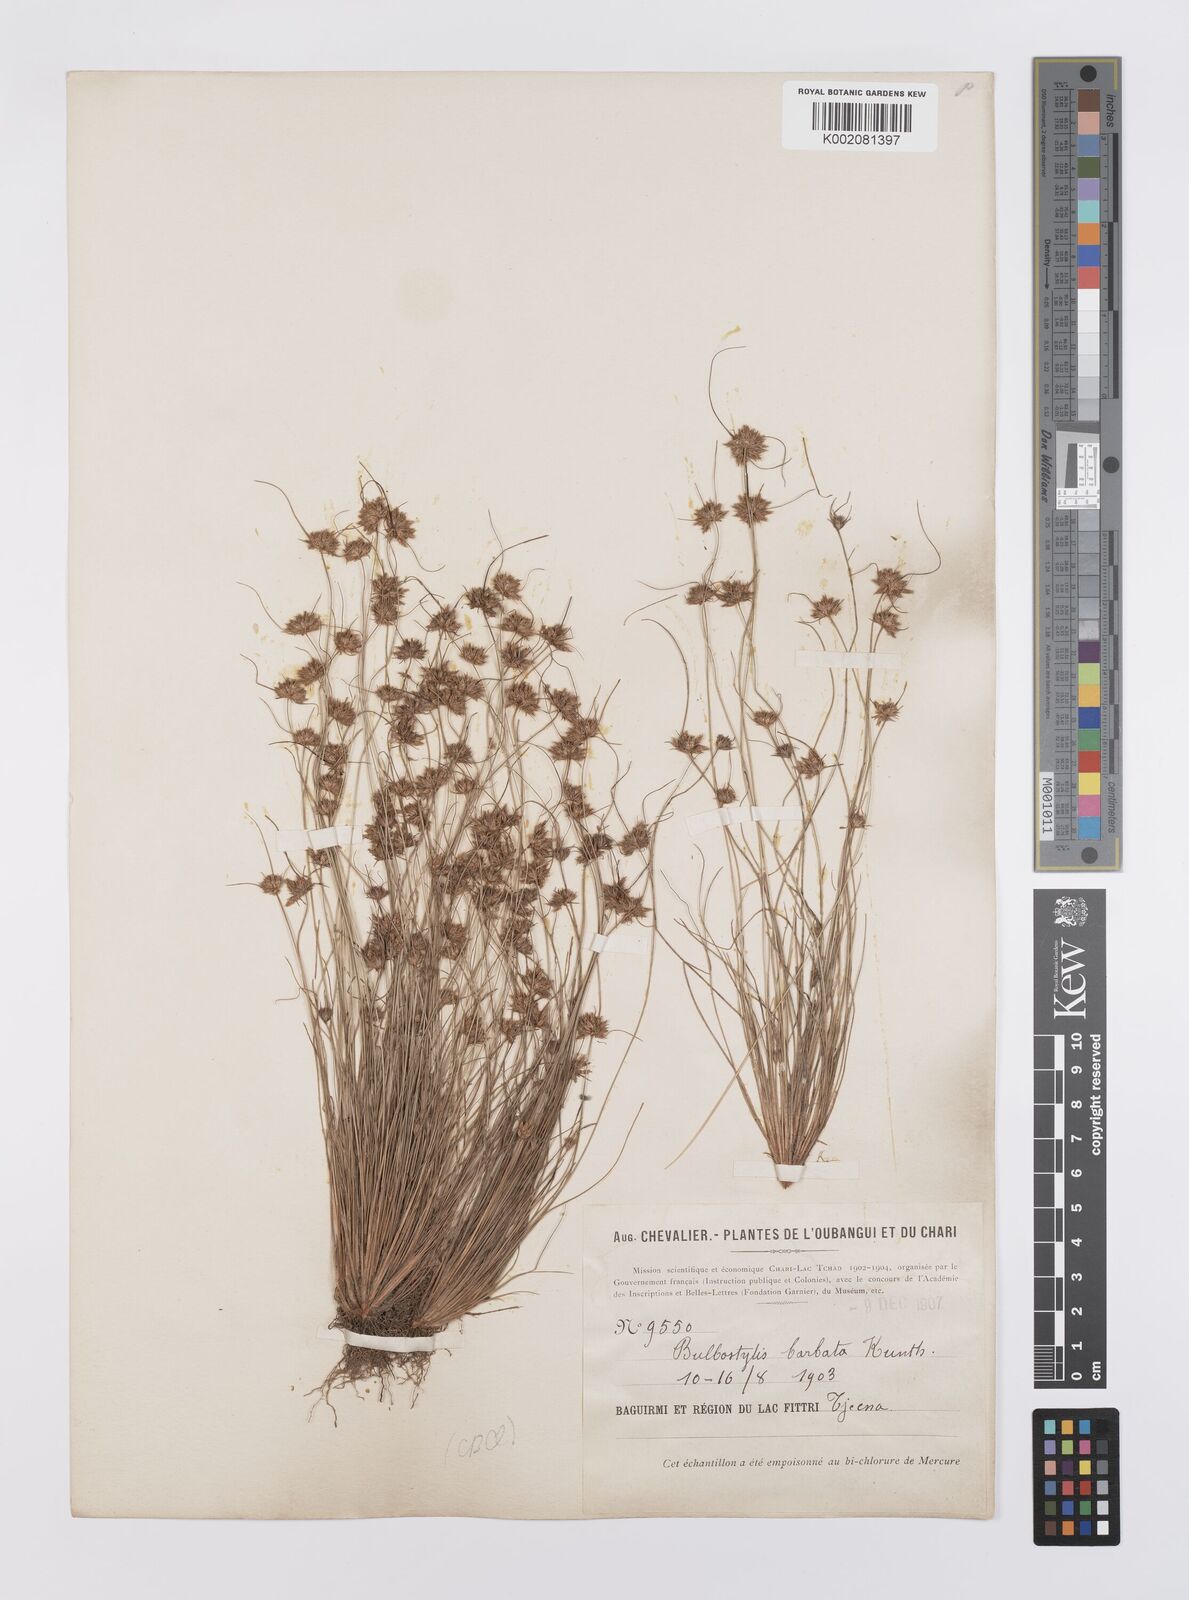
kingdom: Plantae
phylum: Tracheophyta
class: Liliopsida
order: Poales
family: Cyperaceae
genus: Bulbostylis
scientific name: Bulbostylis barbata
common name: Watergrass
